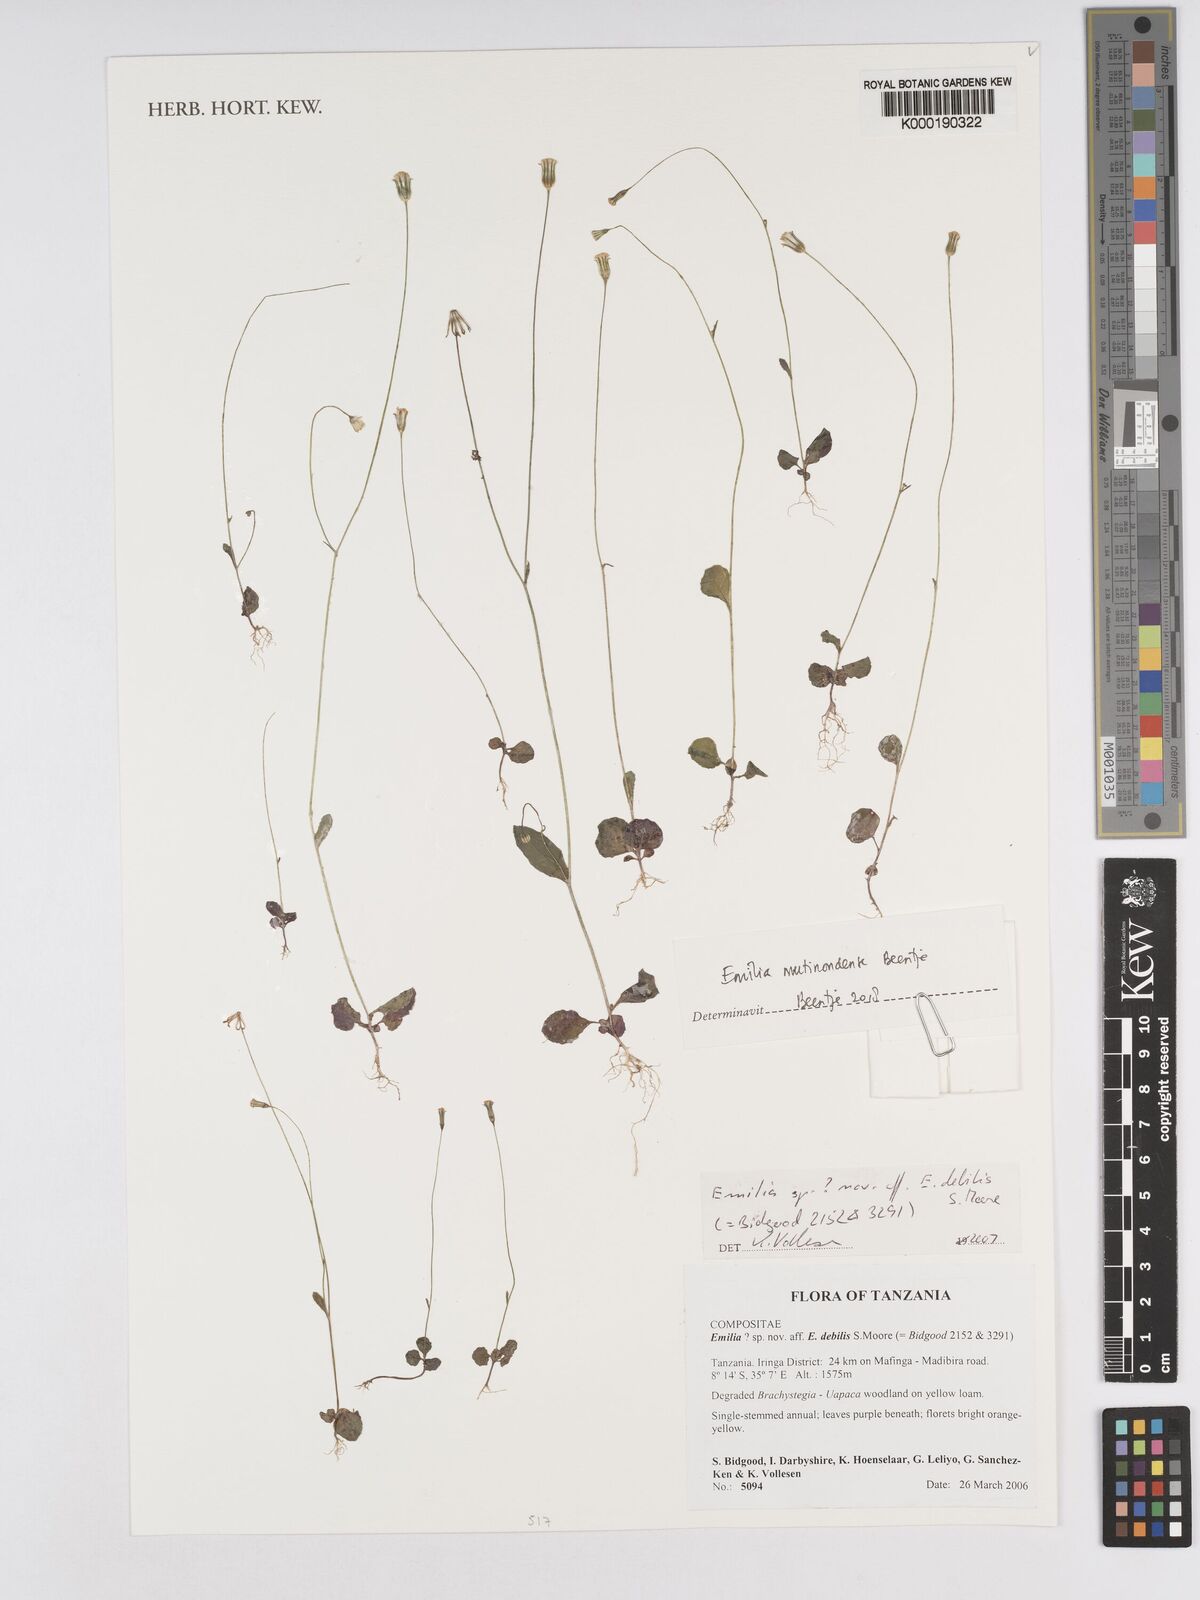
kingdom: Plantae
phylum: Tracheophyta
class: Magnoliopsida
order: Asterales
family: Asteraceae
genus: Emilia
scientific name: Emilia debilis
